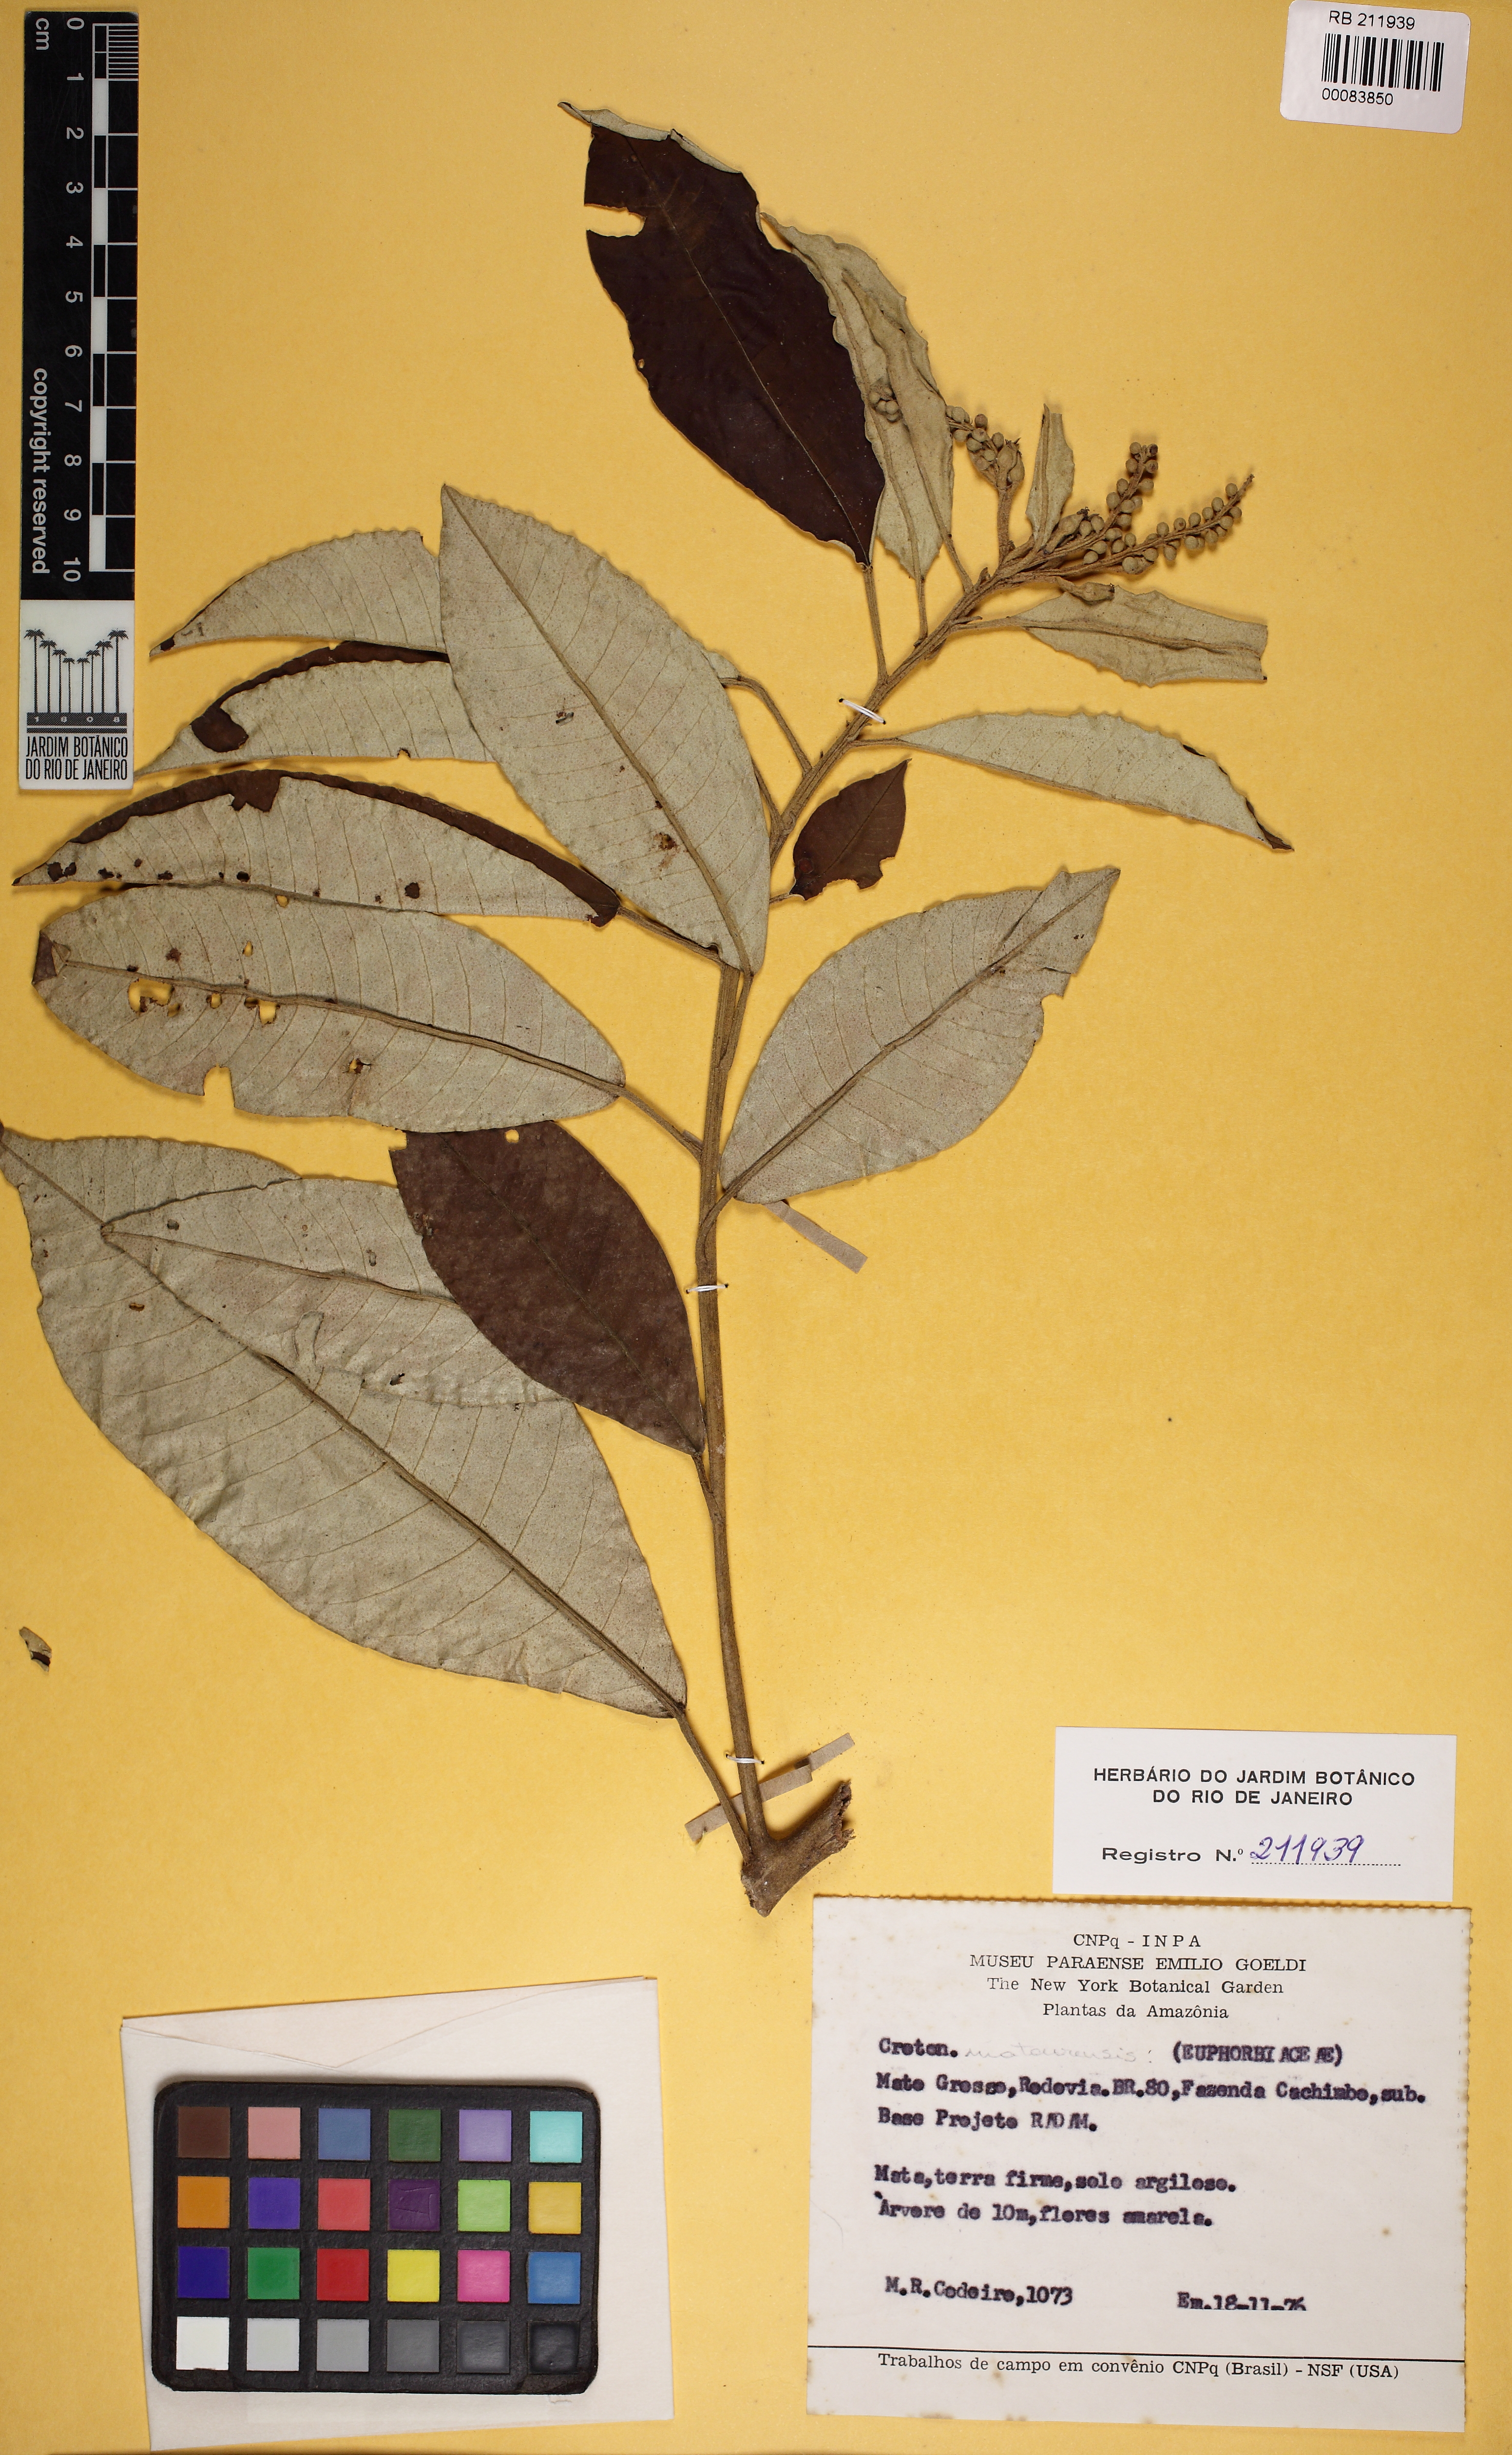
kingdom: Plantae
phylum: Tracheophyta
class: Magnoliopsida
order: Malpighiales
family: Euphorbiaceae
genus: Croton
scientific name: Croton matourensis
